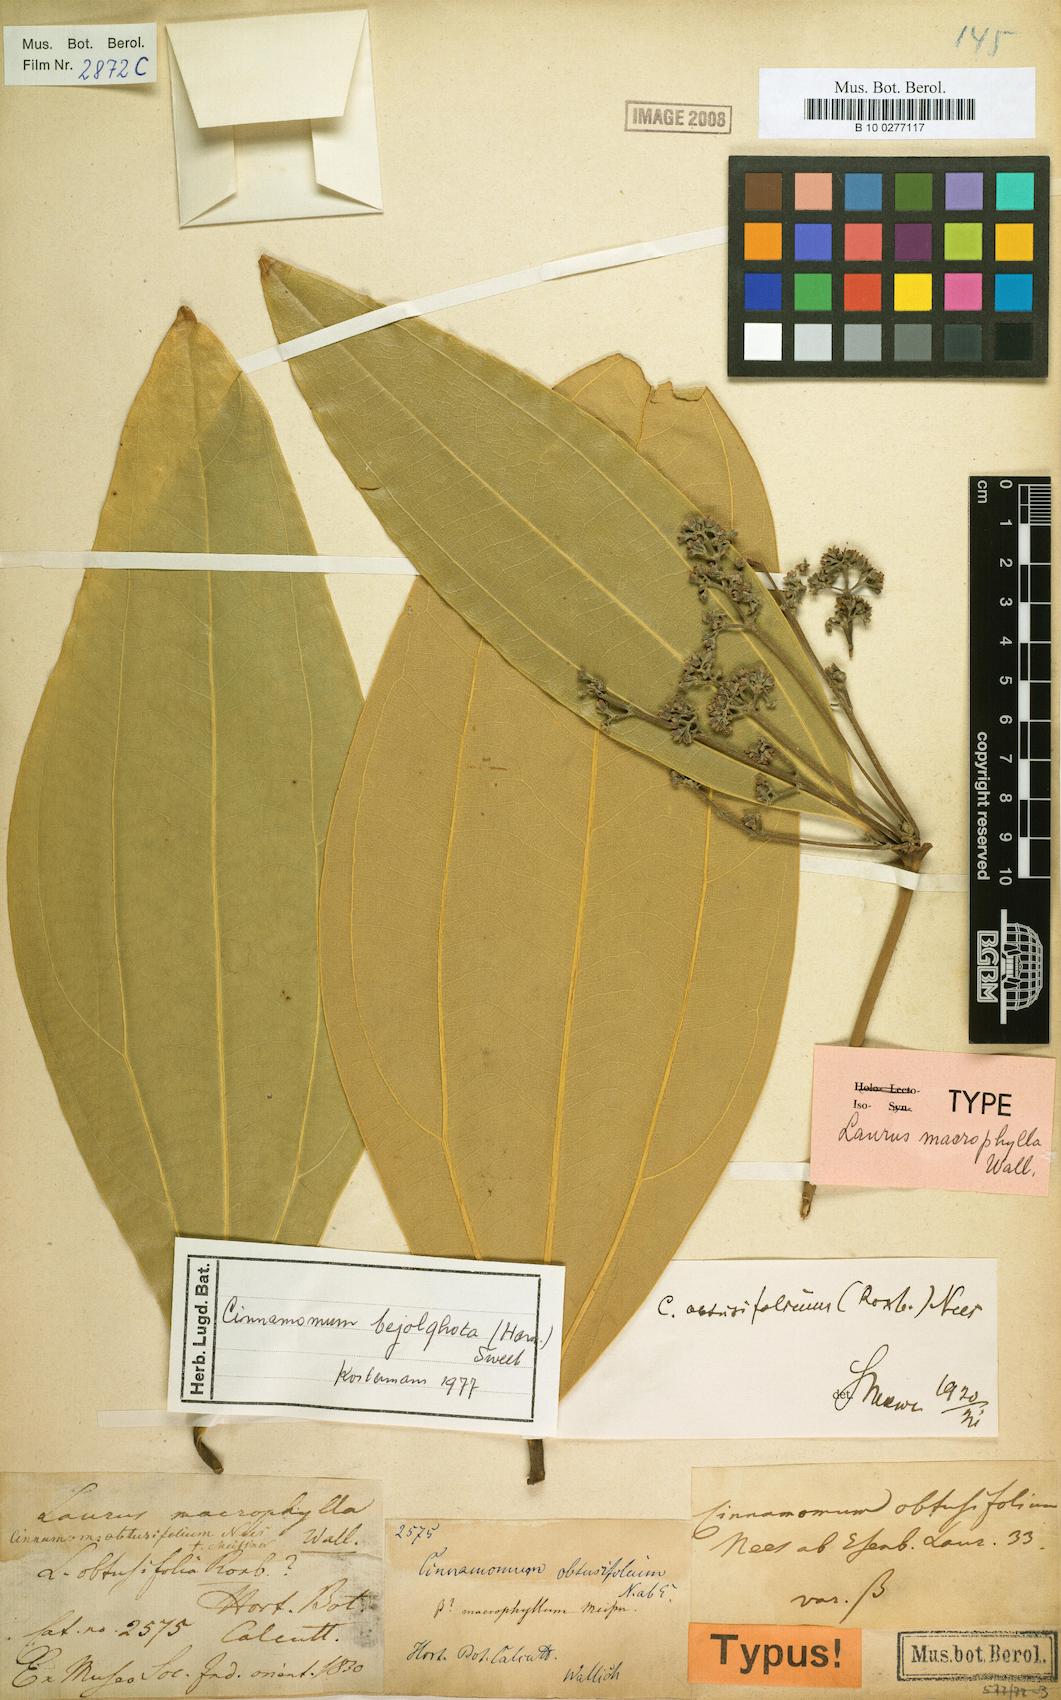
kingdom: Plantae
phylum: Tracheophyta
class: Magnoliopsida
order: Laurales
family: Lauraceae
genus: Cinnamomum
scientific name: Cinnamomum bejolghota
